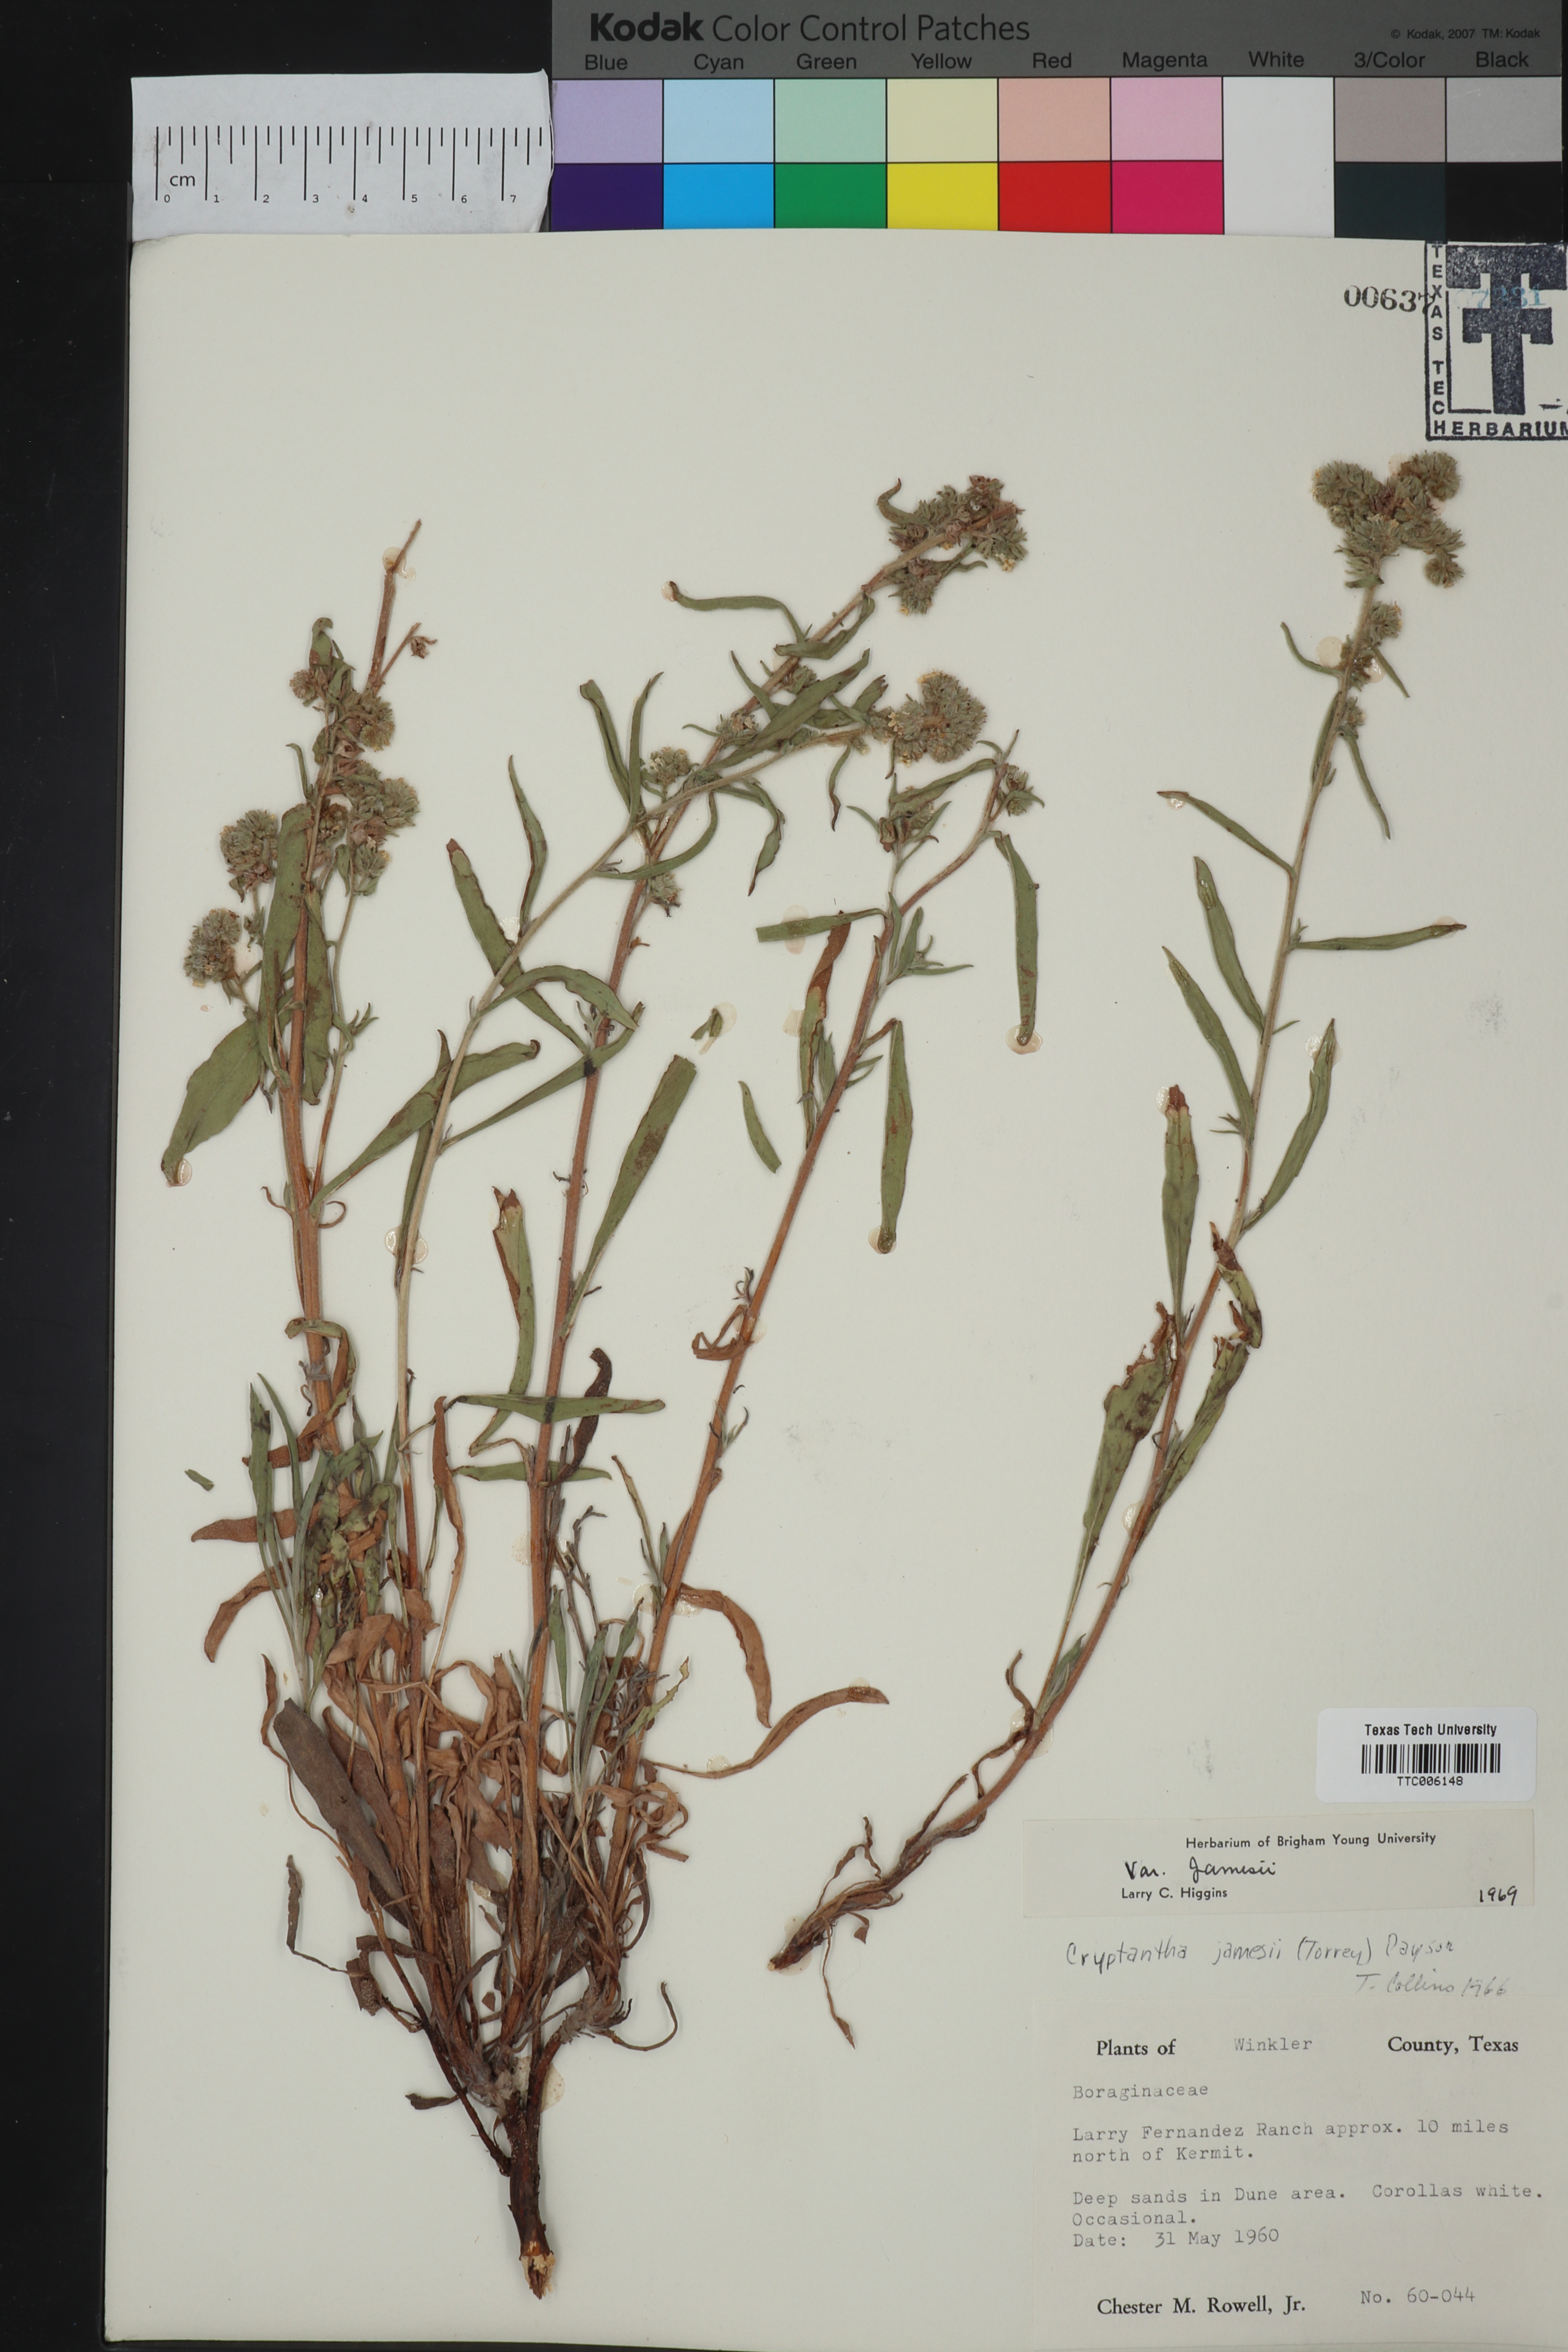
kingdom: Plantae
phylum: Tracheophyta
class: Magnoliopsida
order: Boraginales
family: Boraginaceae
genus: Oreocarya
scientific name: Oreocarya suffruticosa
